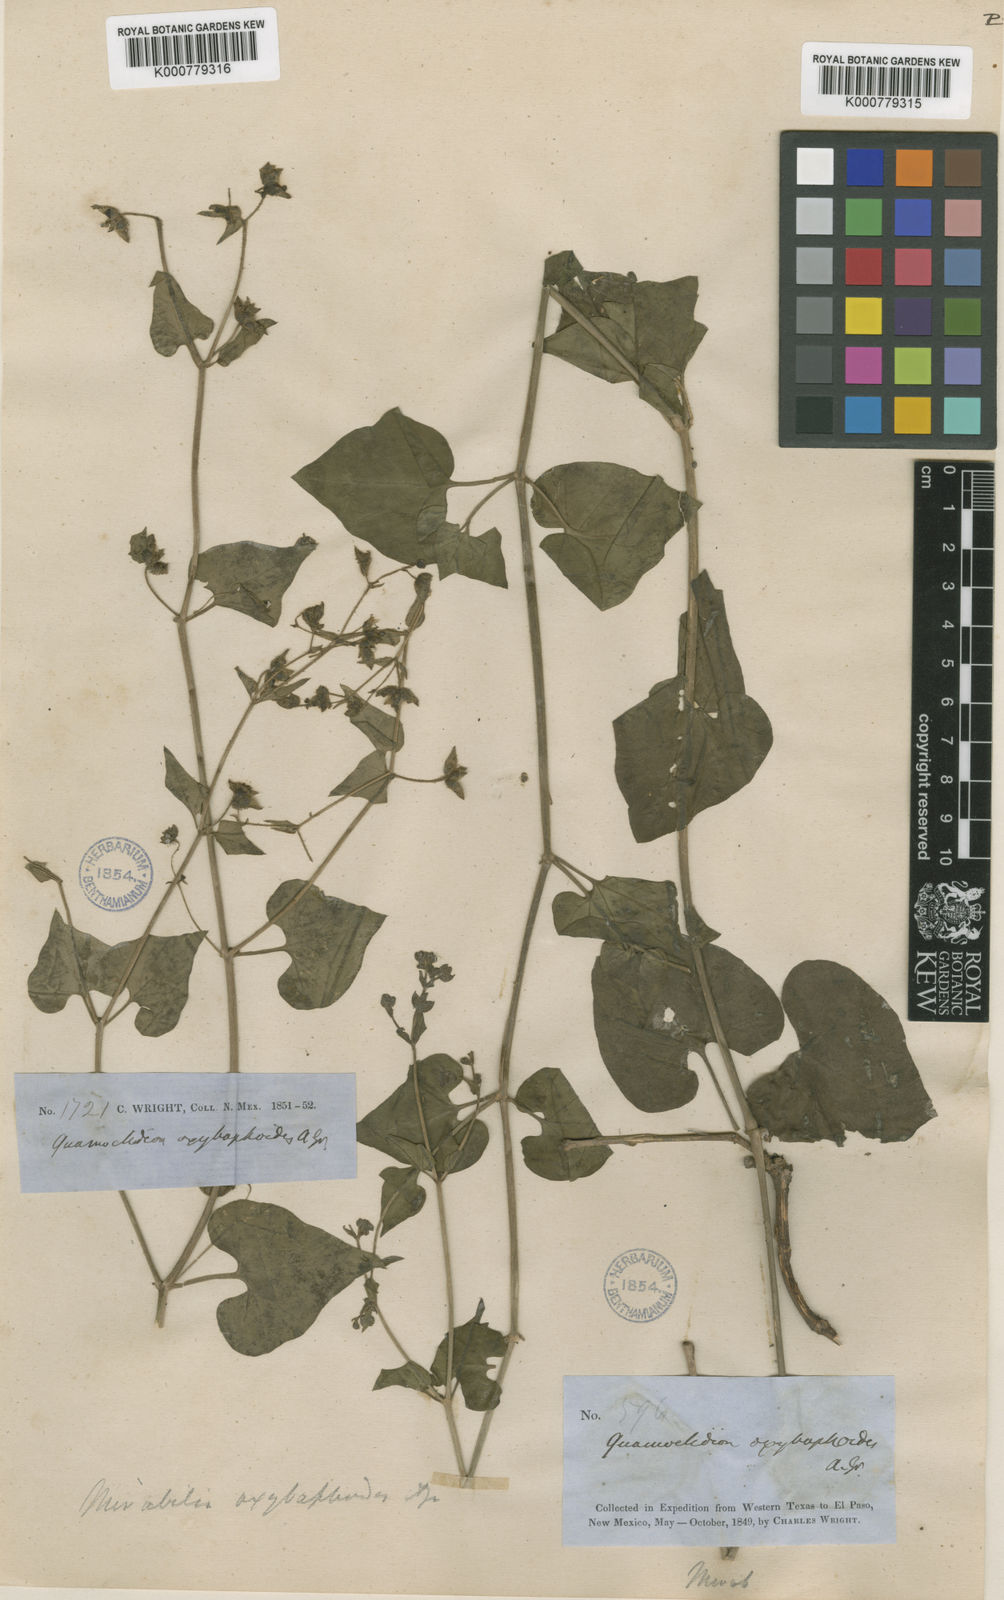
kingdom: Plantae
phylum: Tracheophyta
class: Magnoliopsida
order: Caryophyllales
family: Nyctaginaceae
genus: Mirabilis
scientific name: Mirabilis oxybaphoides
